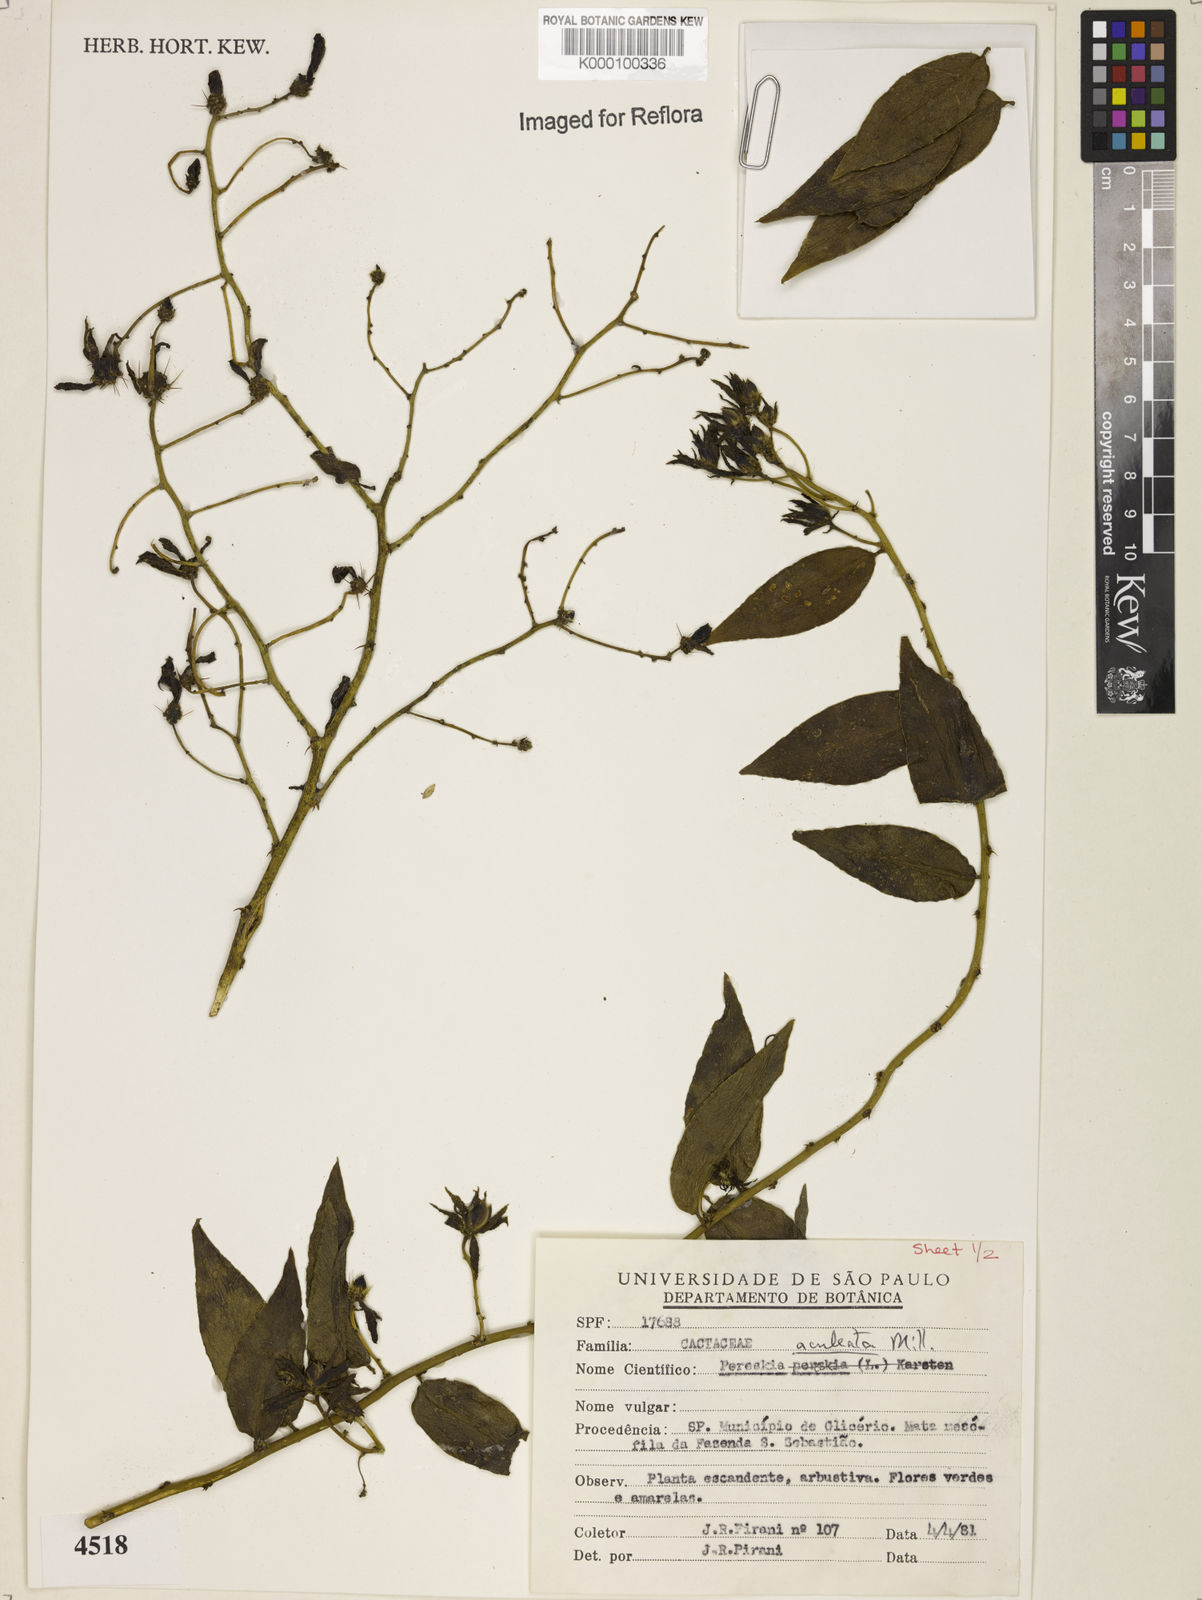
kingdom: Plantae
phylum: Tracheophyta
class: Magnoliopsida
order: Caryophyllales
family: Cactaceae
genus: Pereskia
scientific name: Pereskia aculeata
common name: Barbados gooseberry
